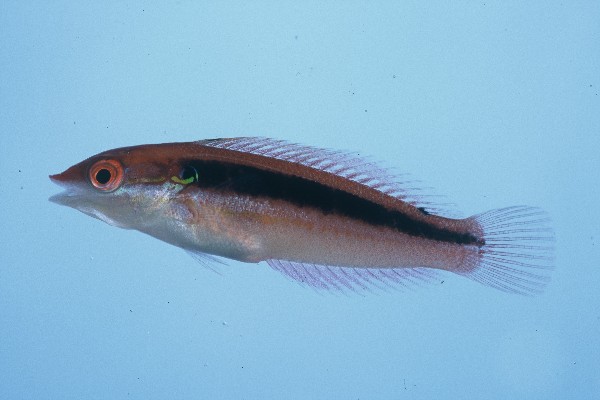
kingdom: Animalia
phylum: Chordata
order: Perciformes
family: Labridae
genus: Coris
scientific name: Coris caudimacula
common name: Spottail coris
